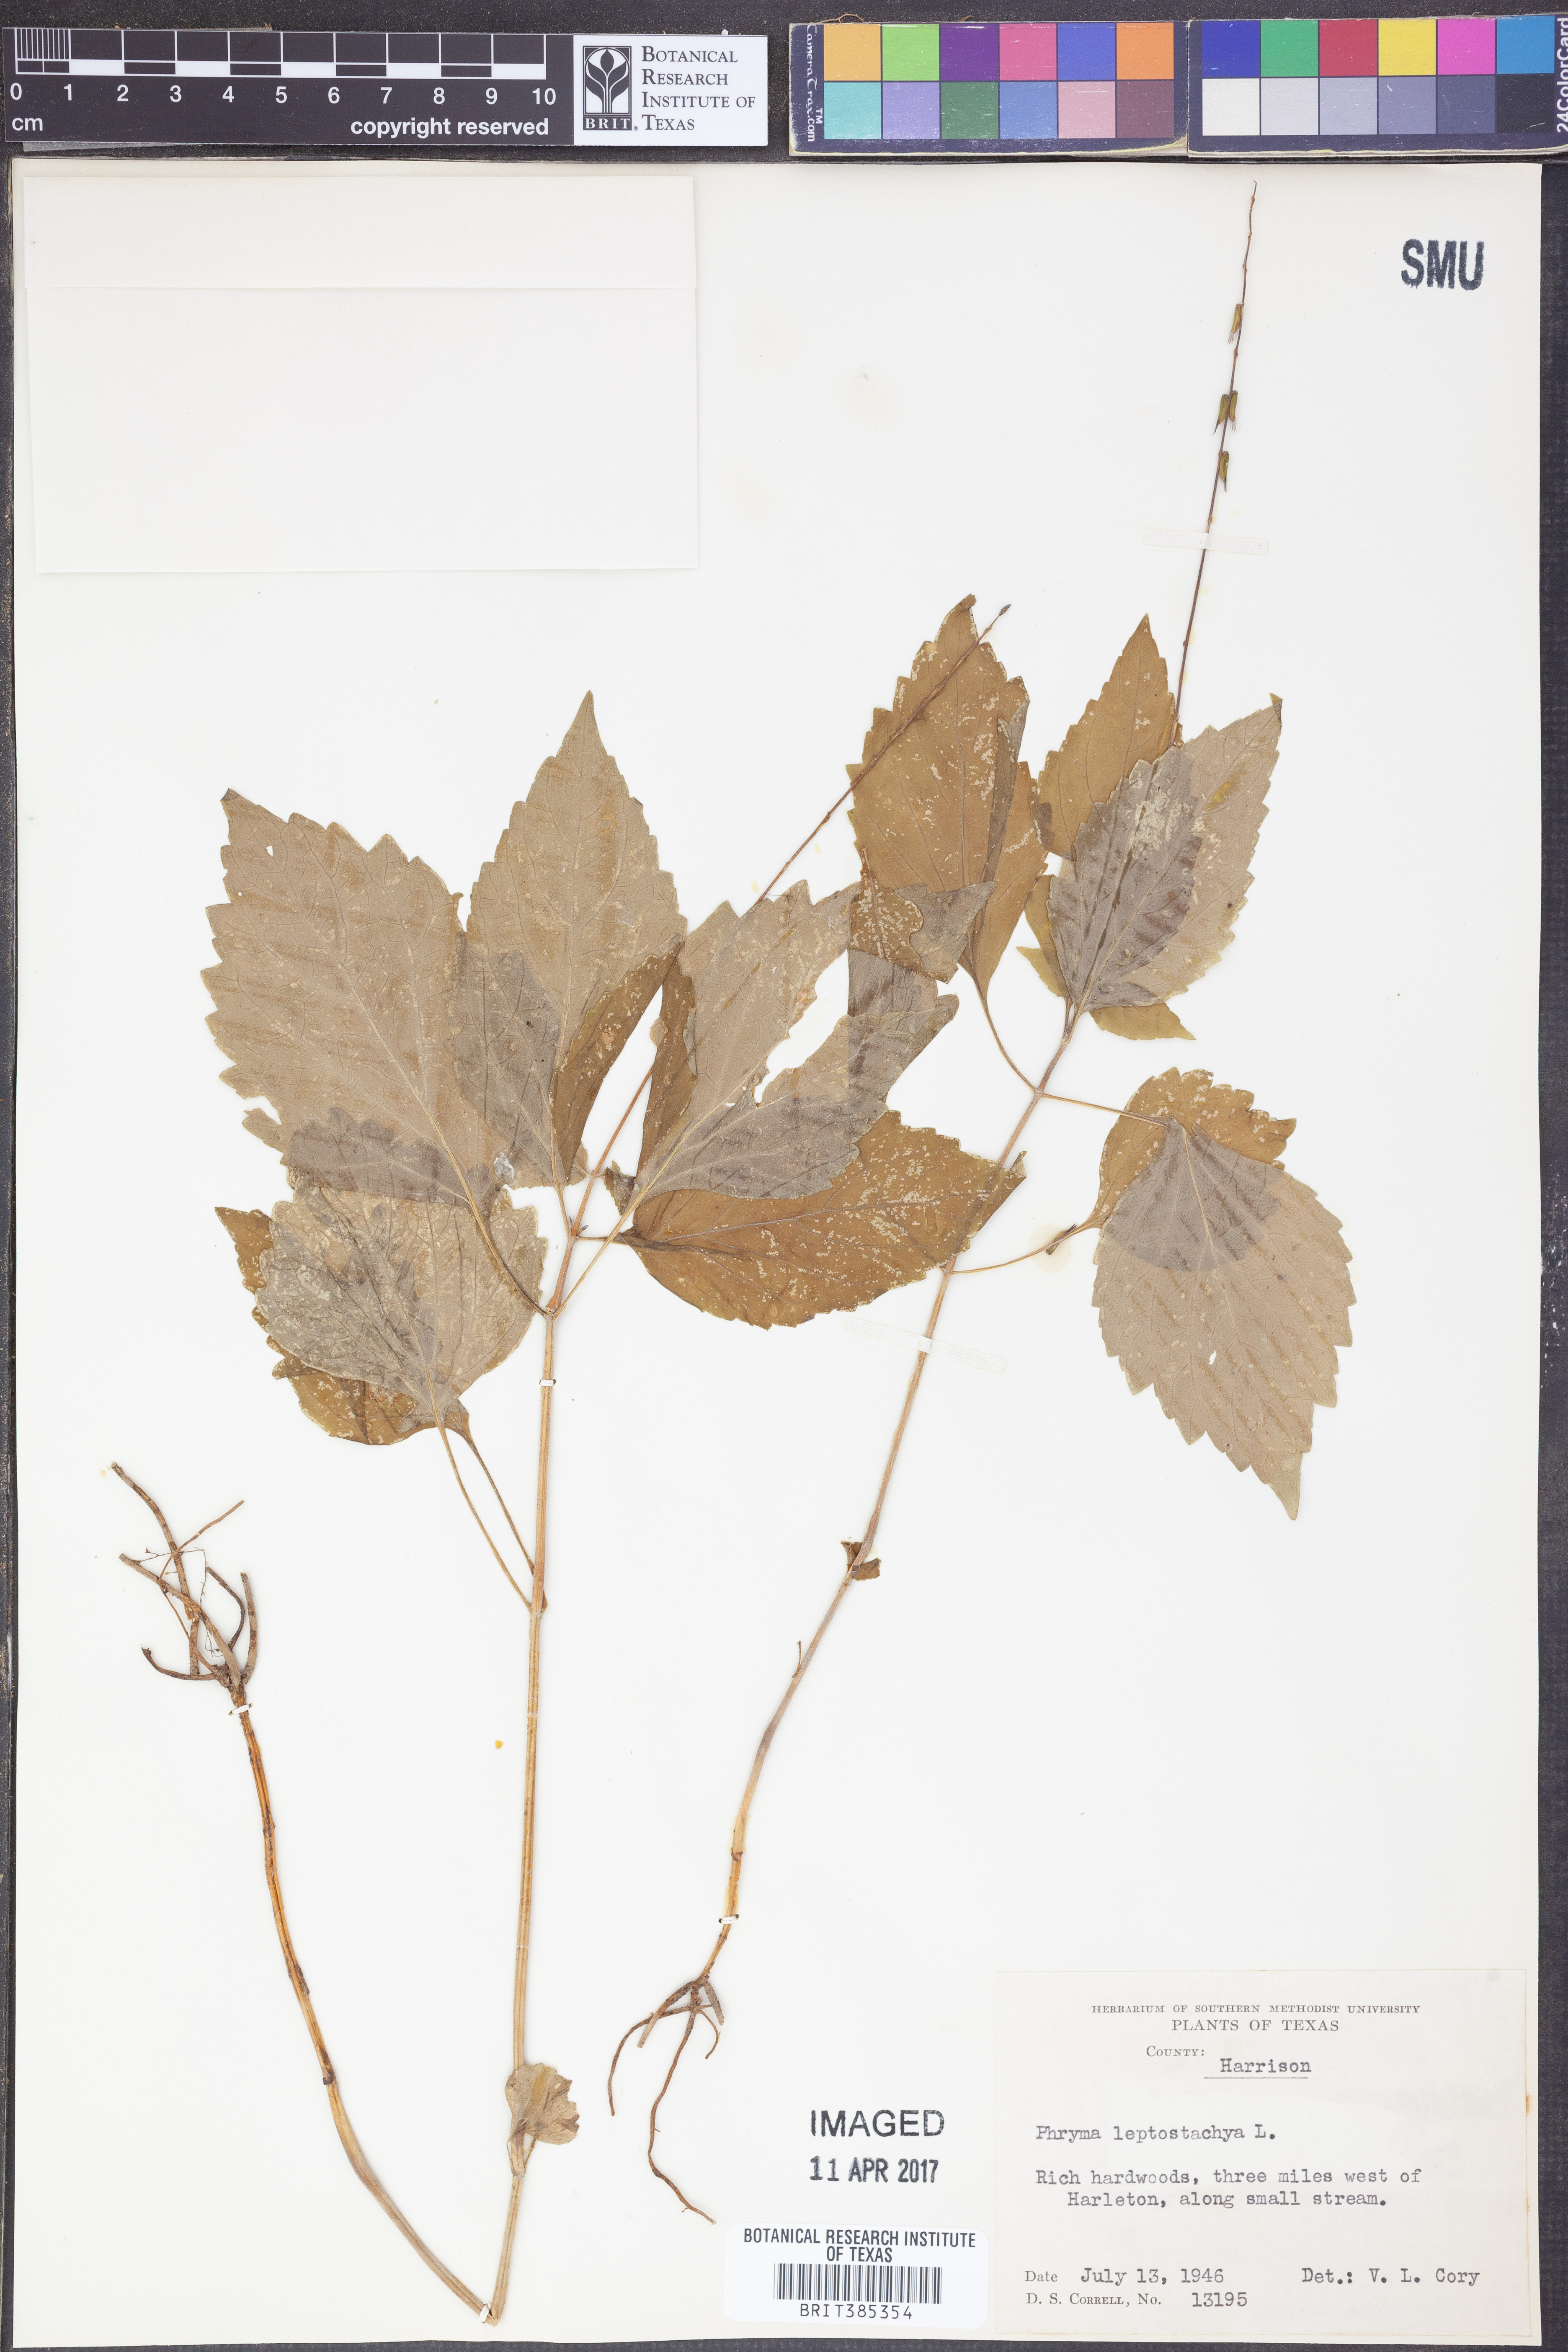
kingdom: Plantae
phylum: Tracheophyta
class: Magnoliopsida
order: Lamiales
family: Phrymaceae
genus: Phryma
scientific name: Phryma leptostachya
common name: American lopseed
